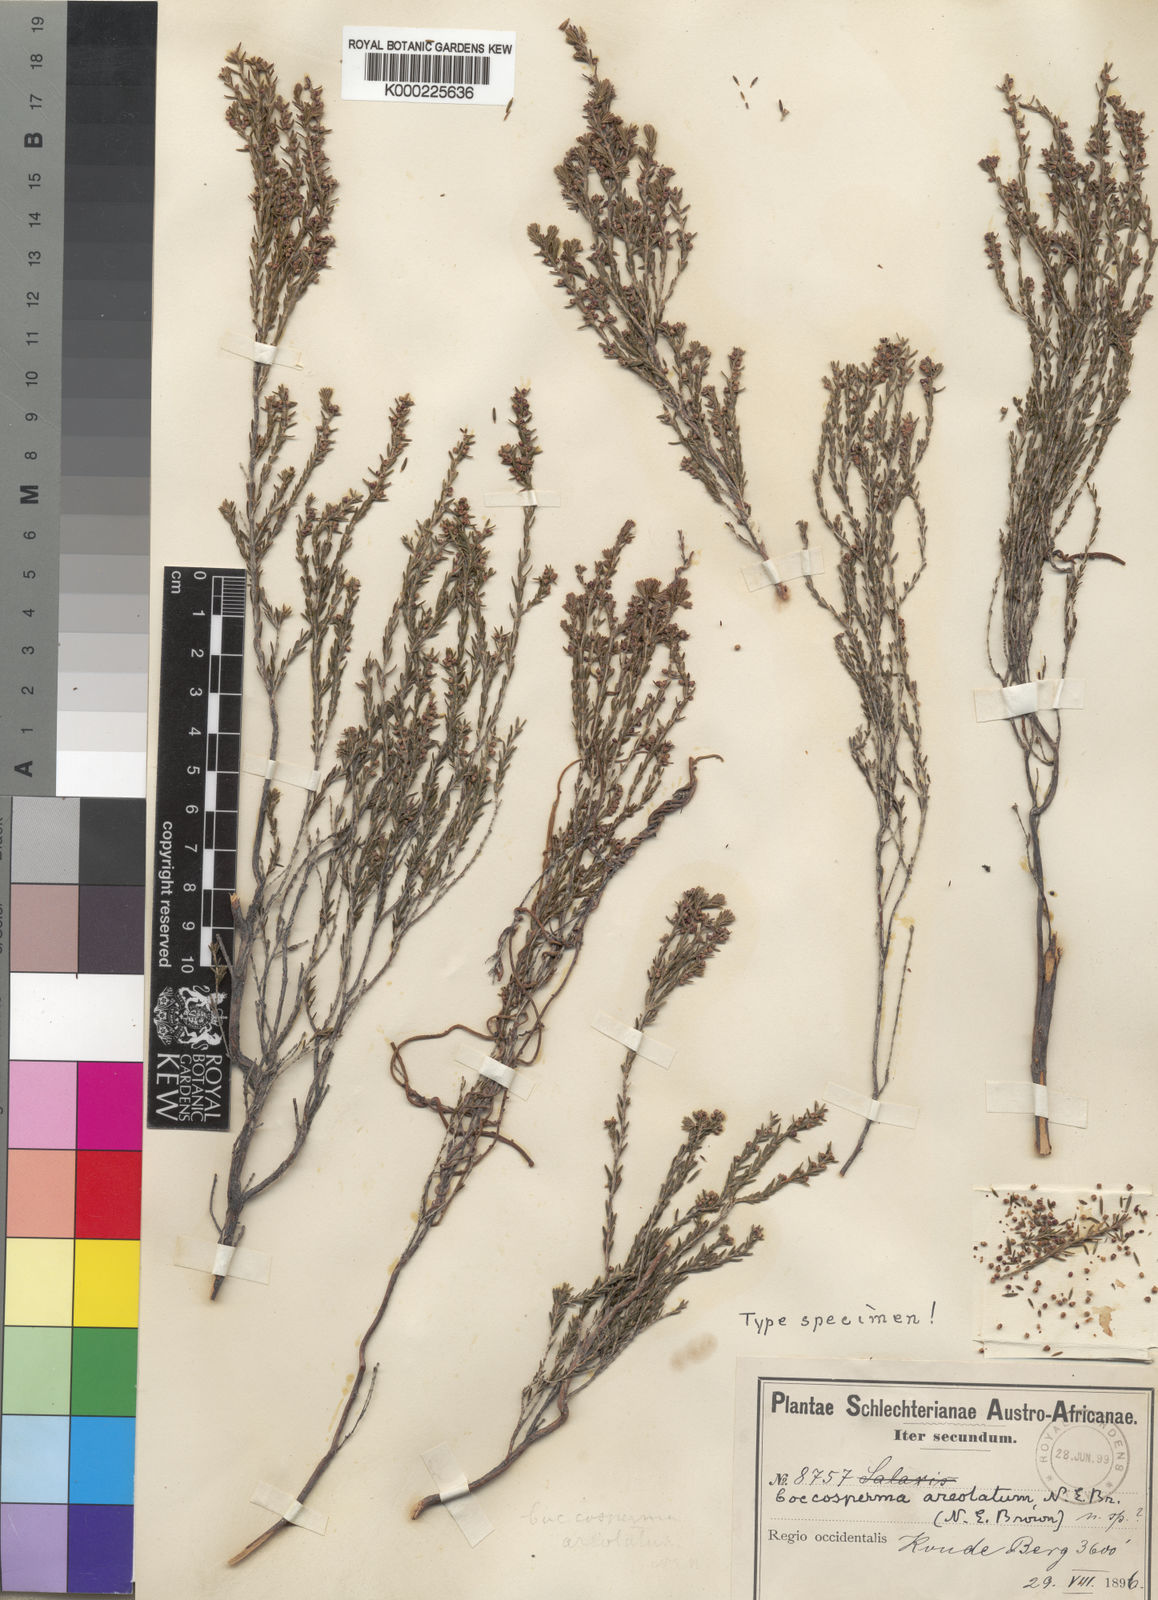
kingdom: Plantae
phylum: Tracheophyta
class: Magnoliopsida
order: Ericales
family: Ericaceae
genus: Erica
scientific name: Erica areolata
